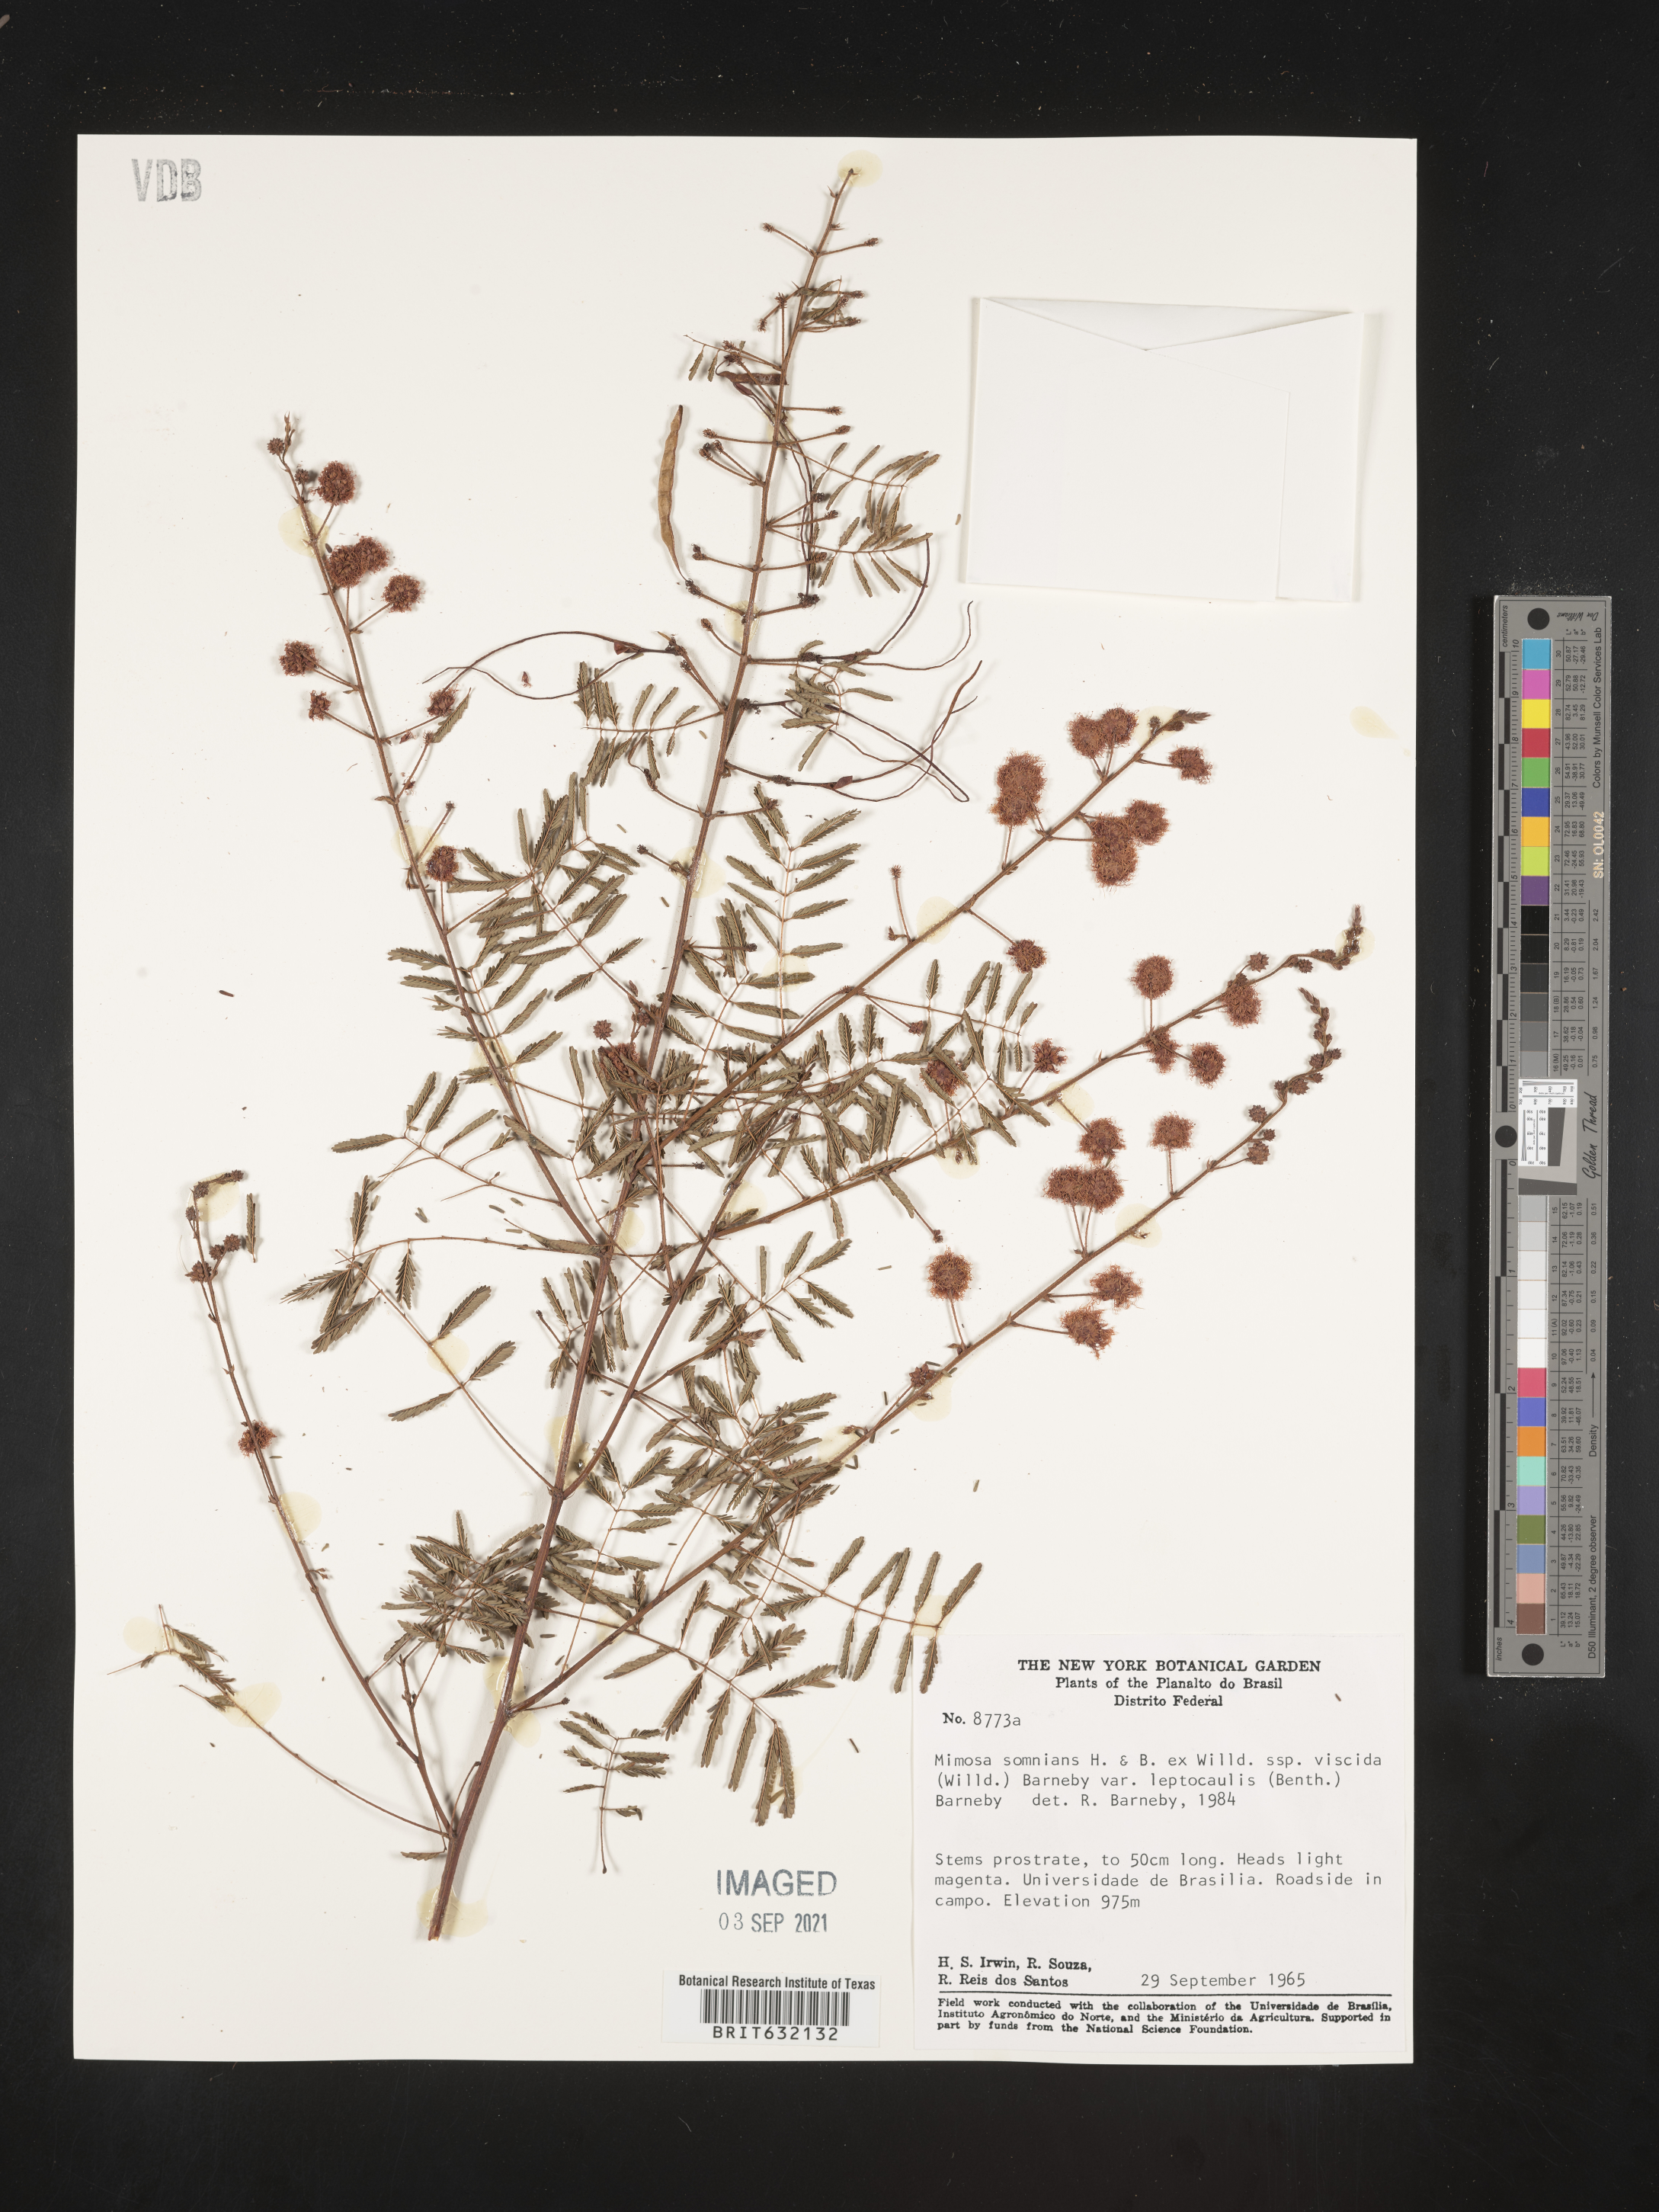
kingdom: Plantae
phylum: Tracheophyta
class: Magnoliopsida
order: Fabales
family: Fabaceae
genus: Mimosa
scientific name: Mimosa
